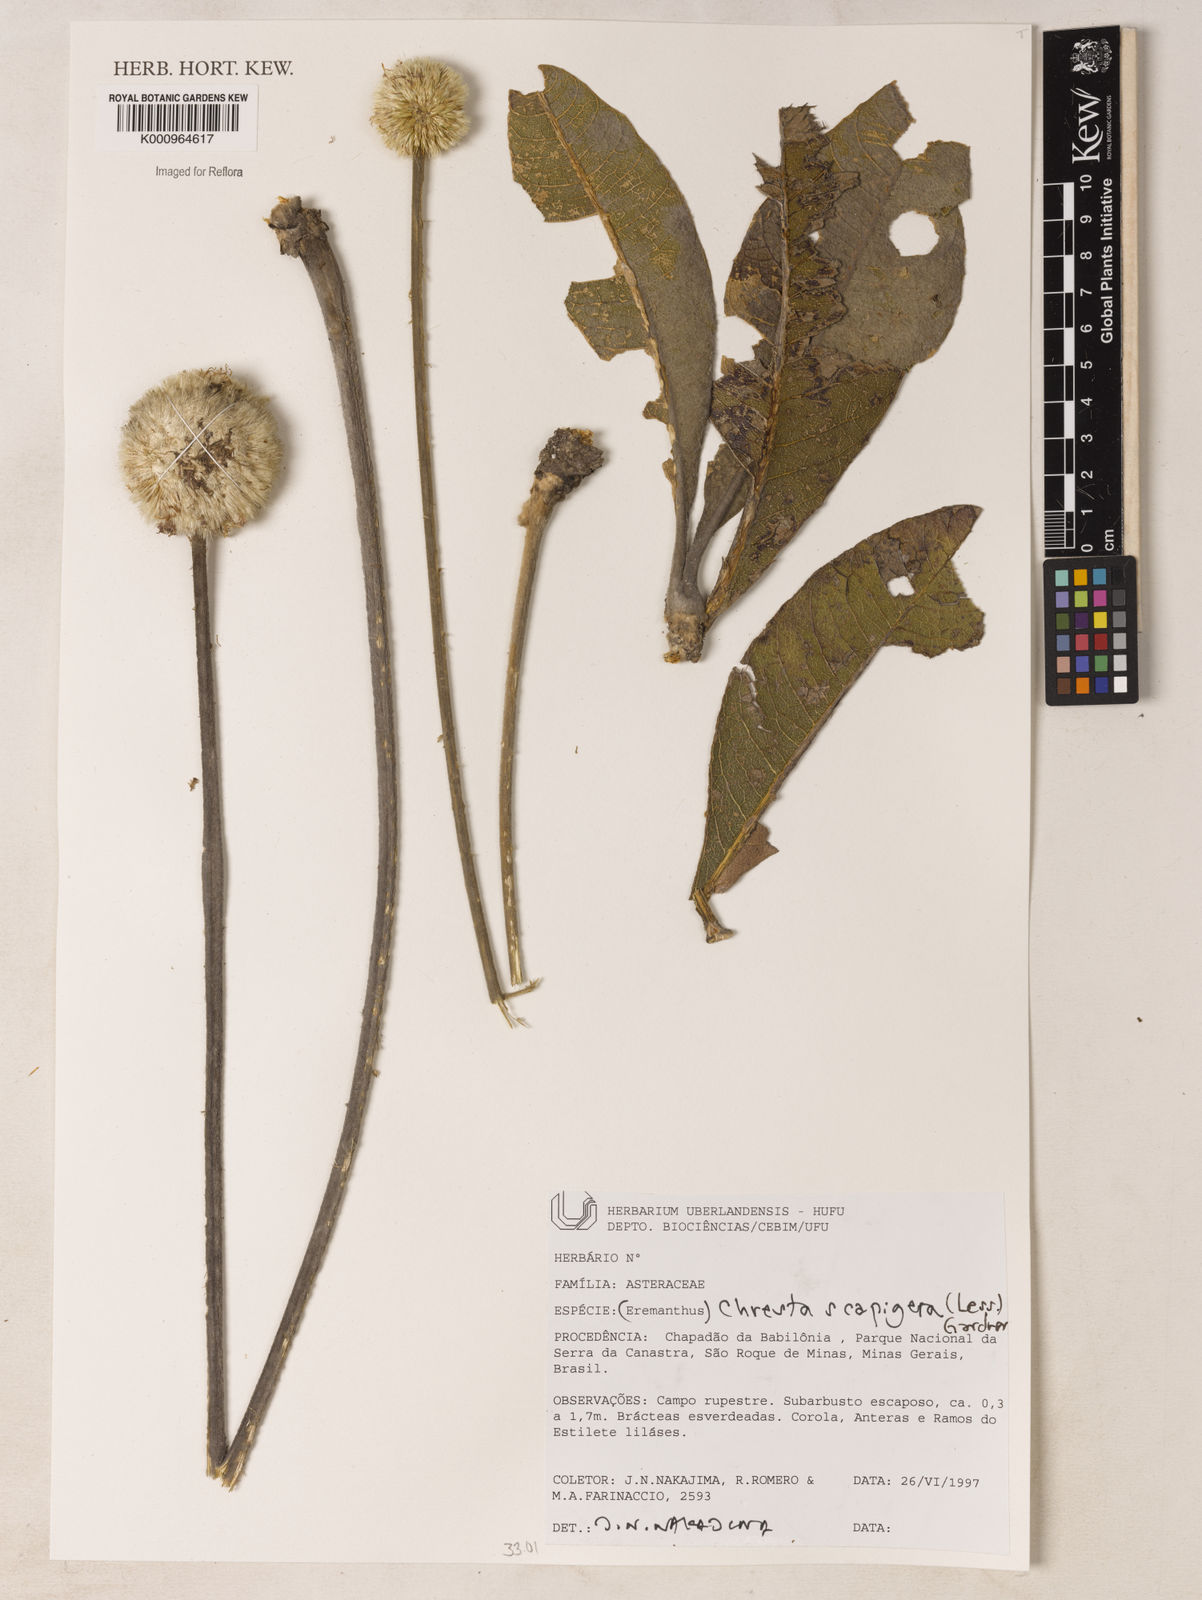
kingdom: Plantae
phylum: Tracheophyta
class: Magnoliopsida
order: Asterales
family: Asteraceae
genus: Chresta
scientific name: Chresta scapigera
